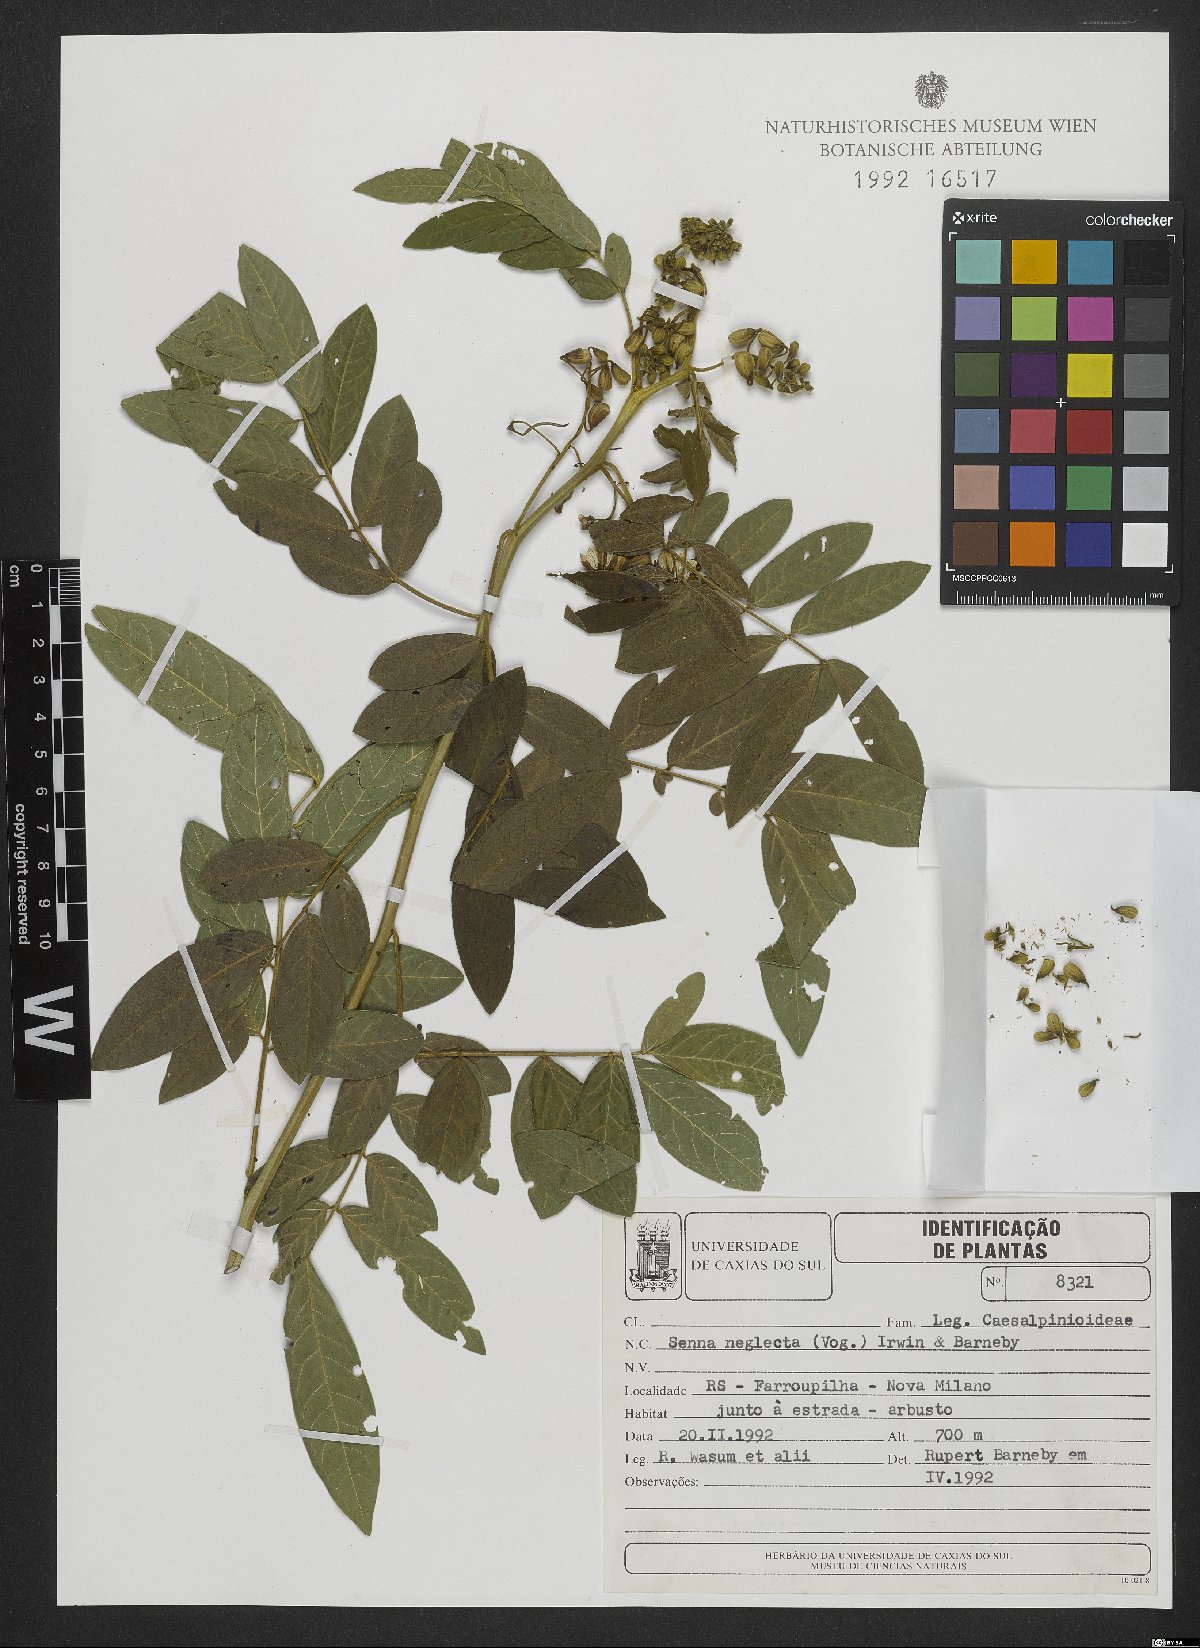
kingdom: Plantae
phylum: Tracheophyta
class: Magnoliopsida
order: Fabales
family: Fabaceae
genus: Senna
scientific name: Senna neglecta
